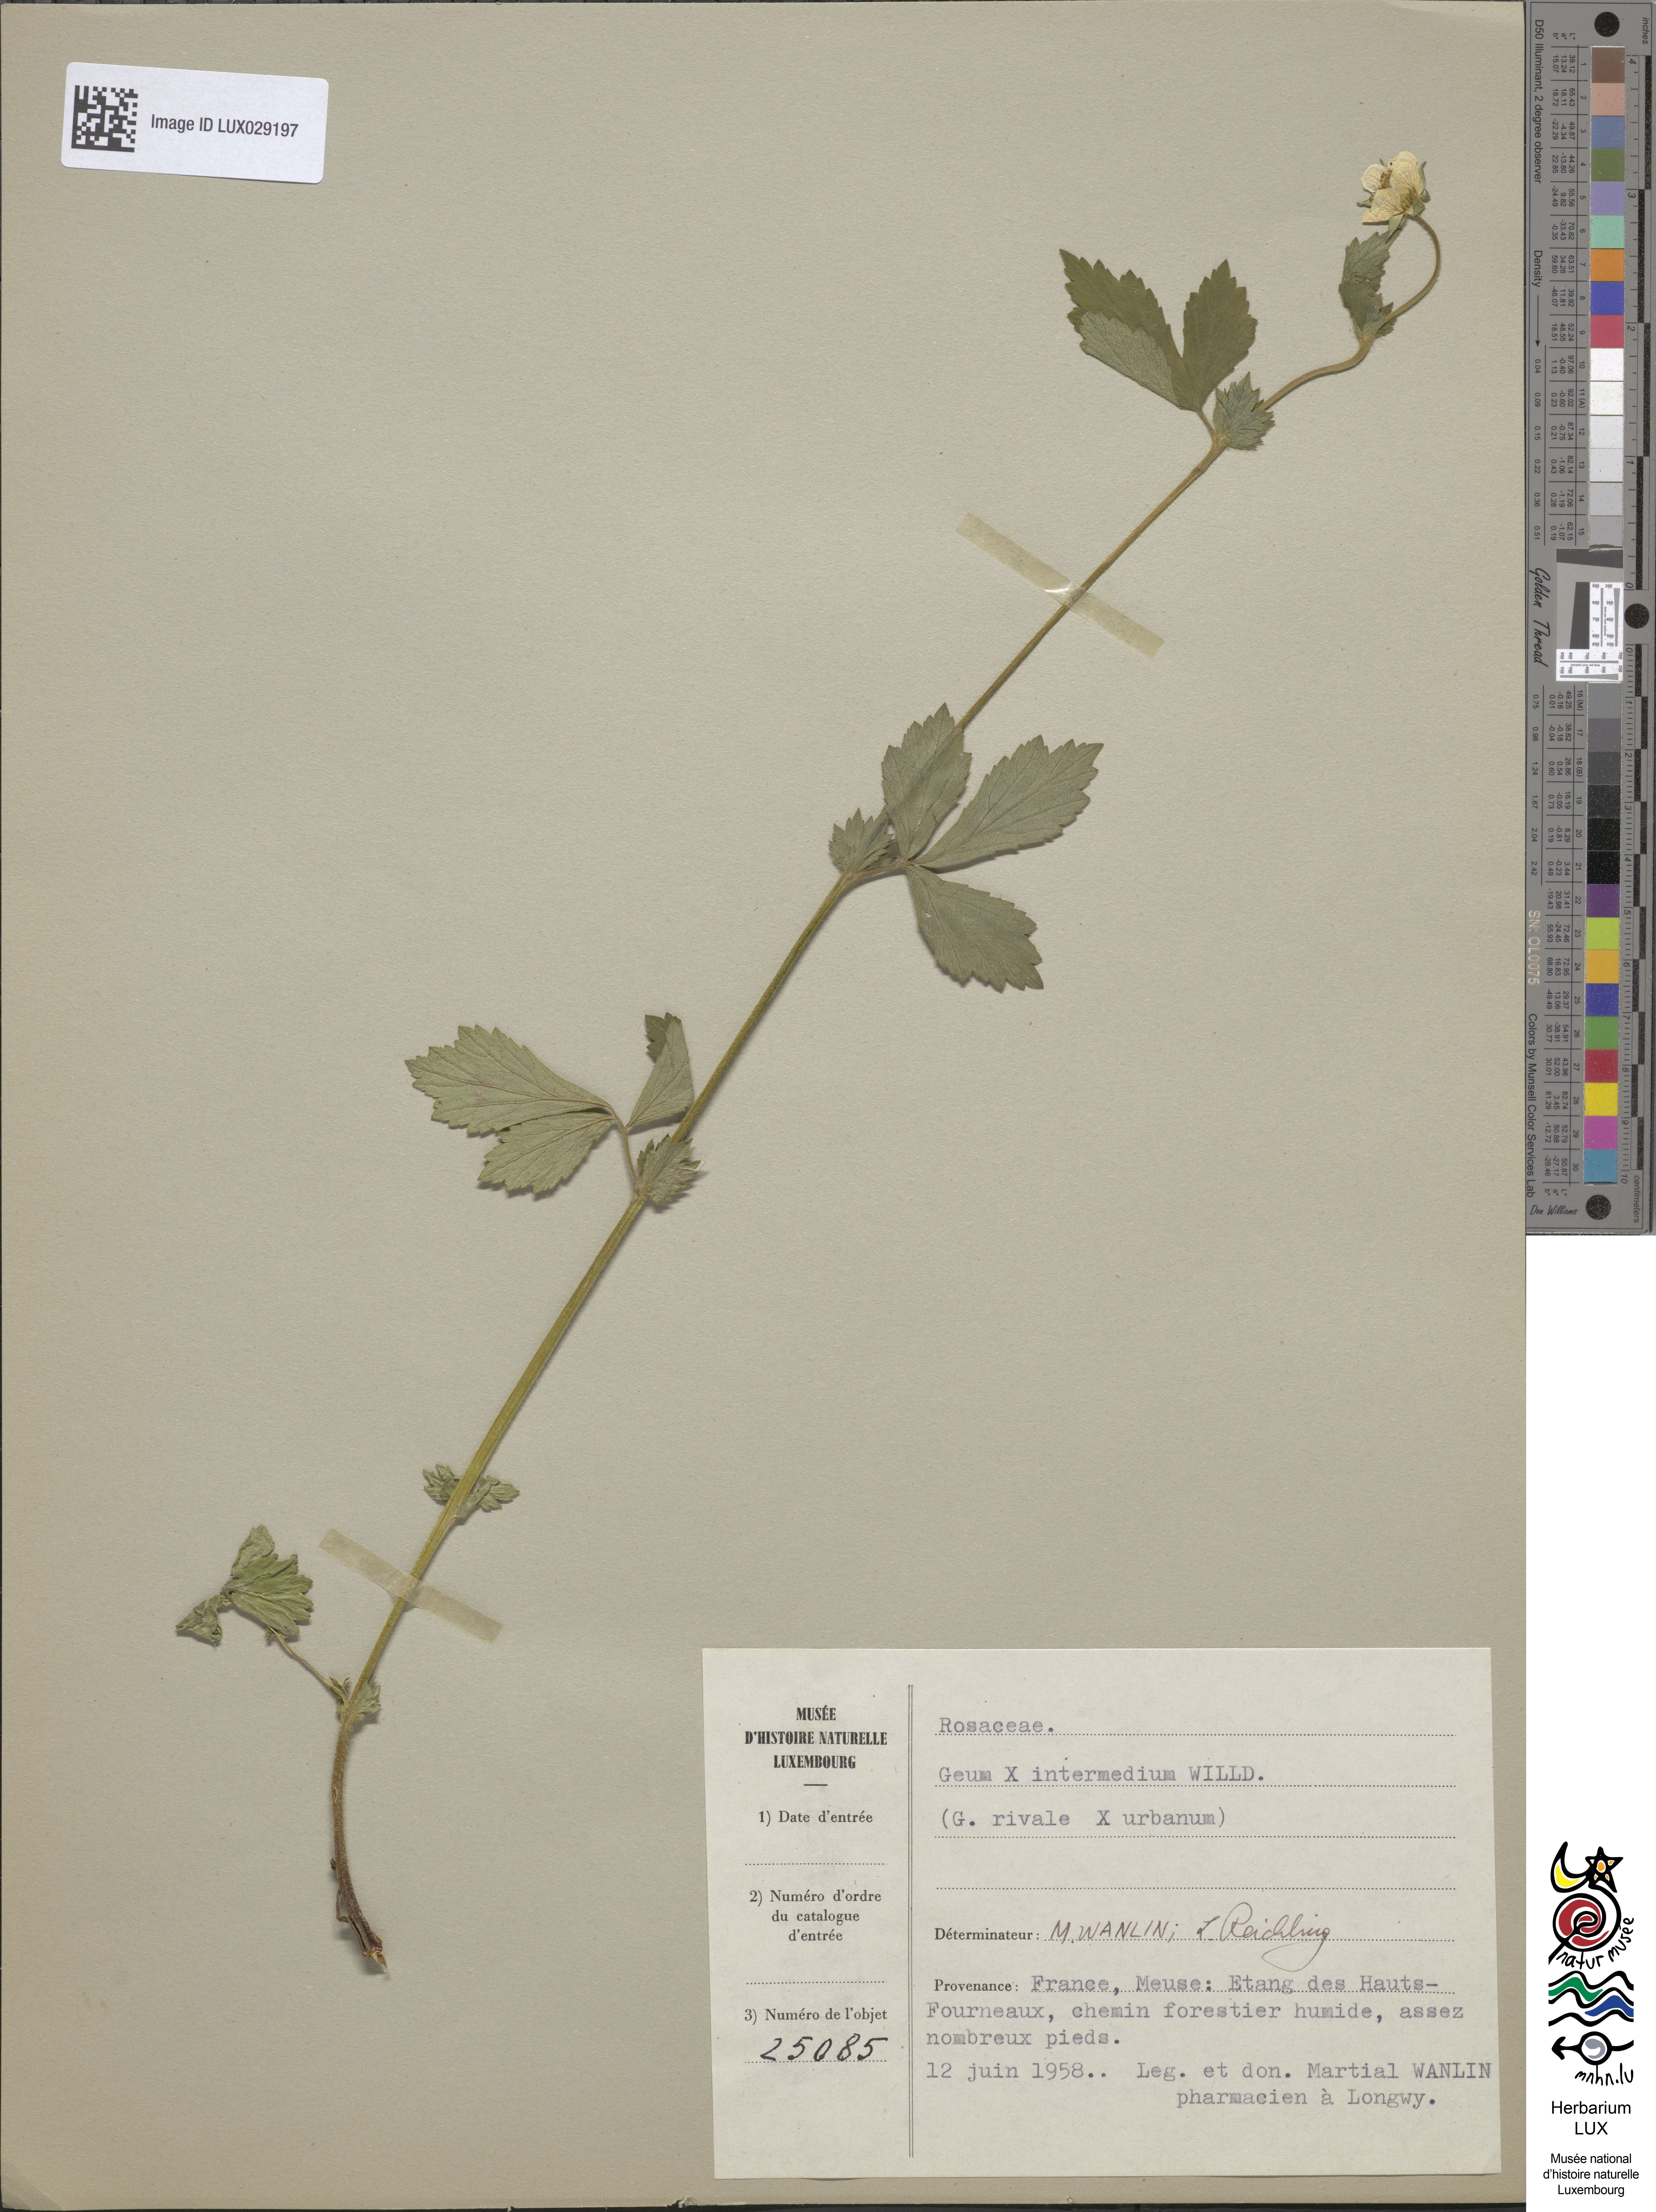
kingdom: Plantae
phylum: Tracheophyta
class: Magnoliopsida
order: Rosales
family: Rosaceae
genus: Geum
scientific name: Geum urbanum
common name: Wood avens
